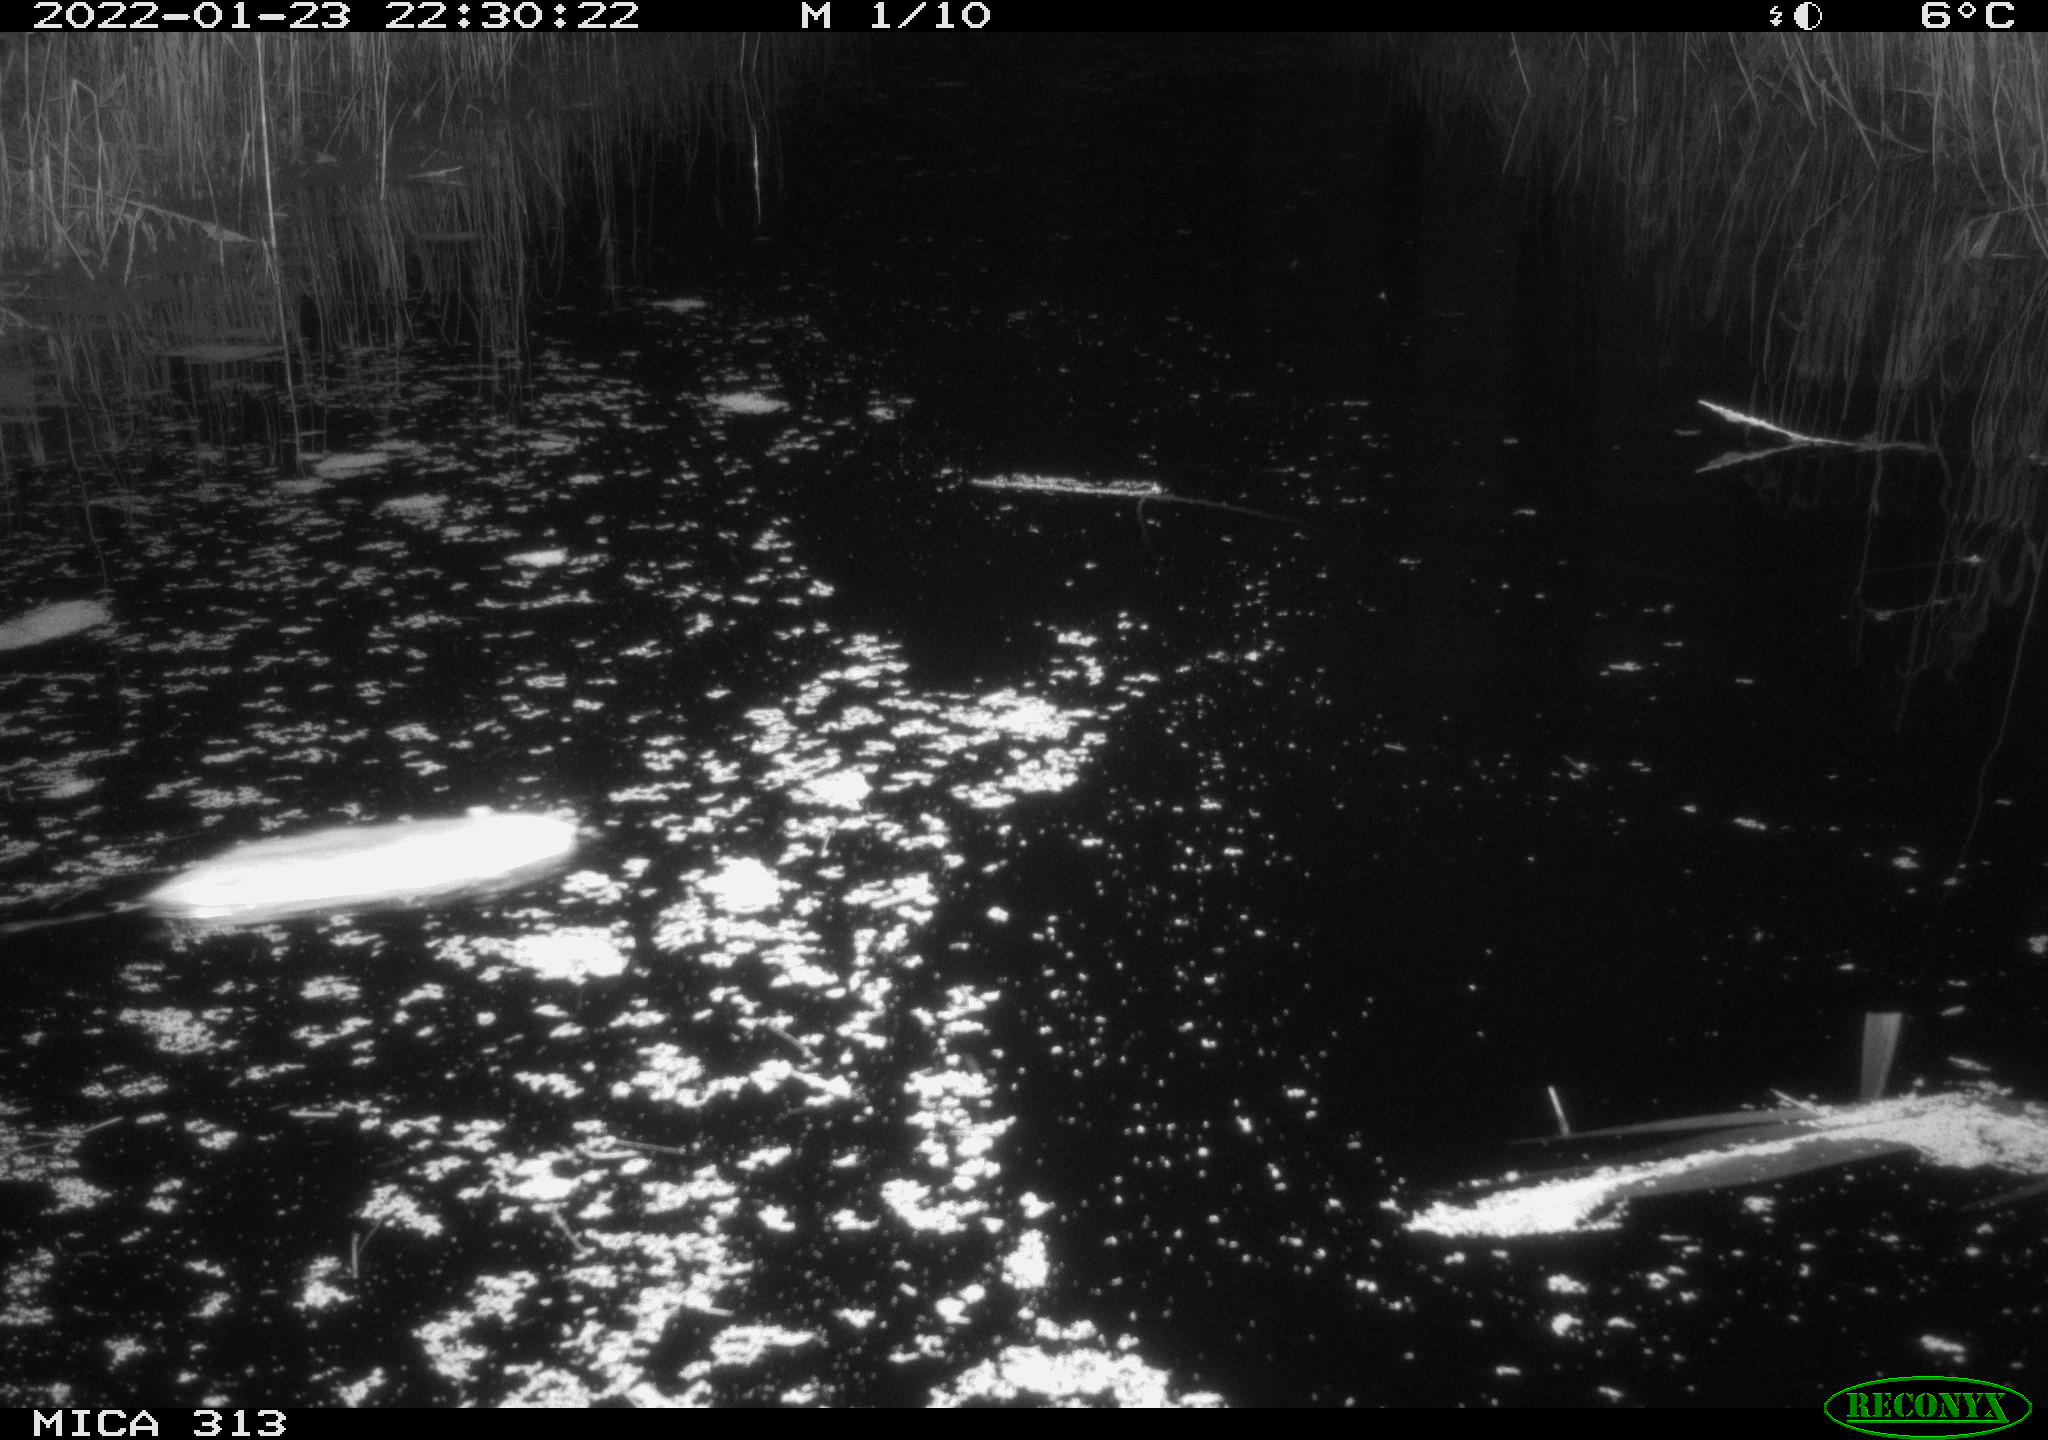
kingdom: Animalia
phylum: Chordata
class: Mammalia
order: Rodentia
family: Muridae
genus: Rattus
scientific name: Rattus norvegicus
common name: Brown rat
